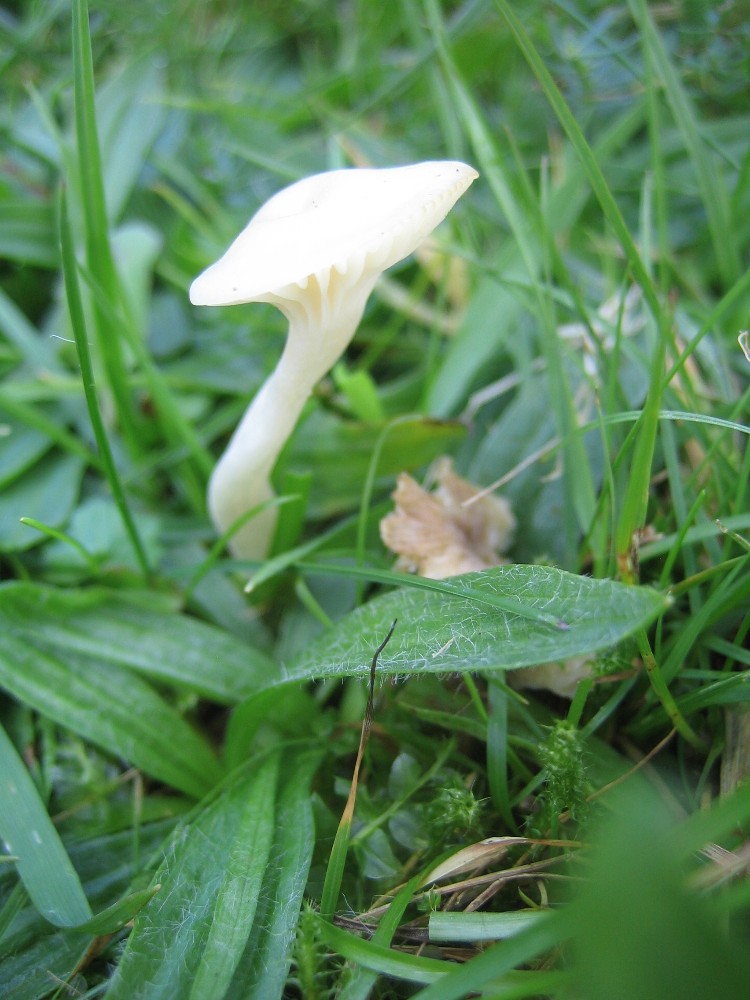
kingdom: Fungi
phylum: Basidiomycota
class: Agaricomycetes
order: Agaricales
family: Hygrophoraceae
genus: Cuphophyllus
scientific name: Cuphophyllus virgineus
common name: snehvid vokshat
